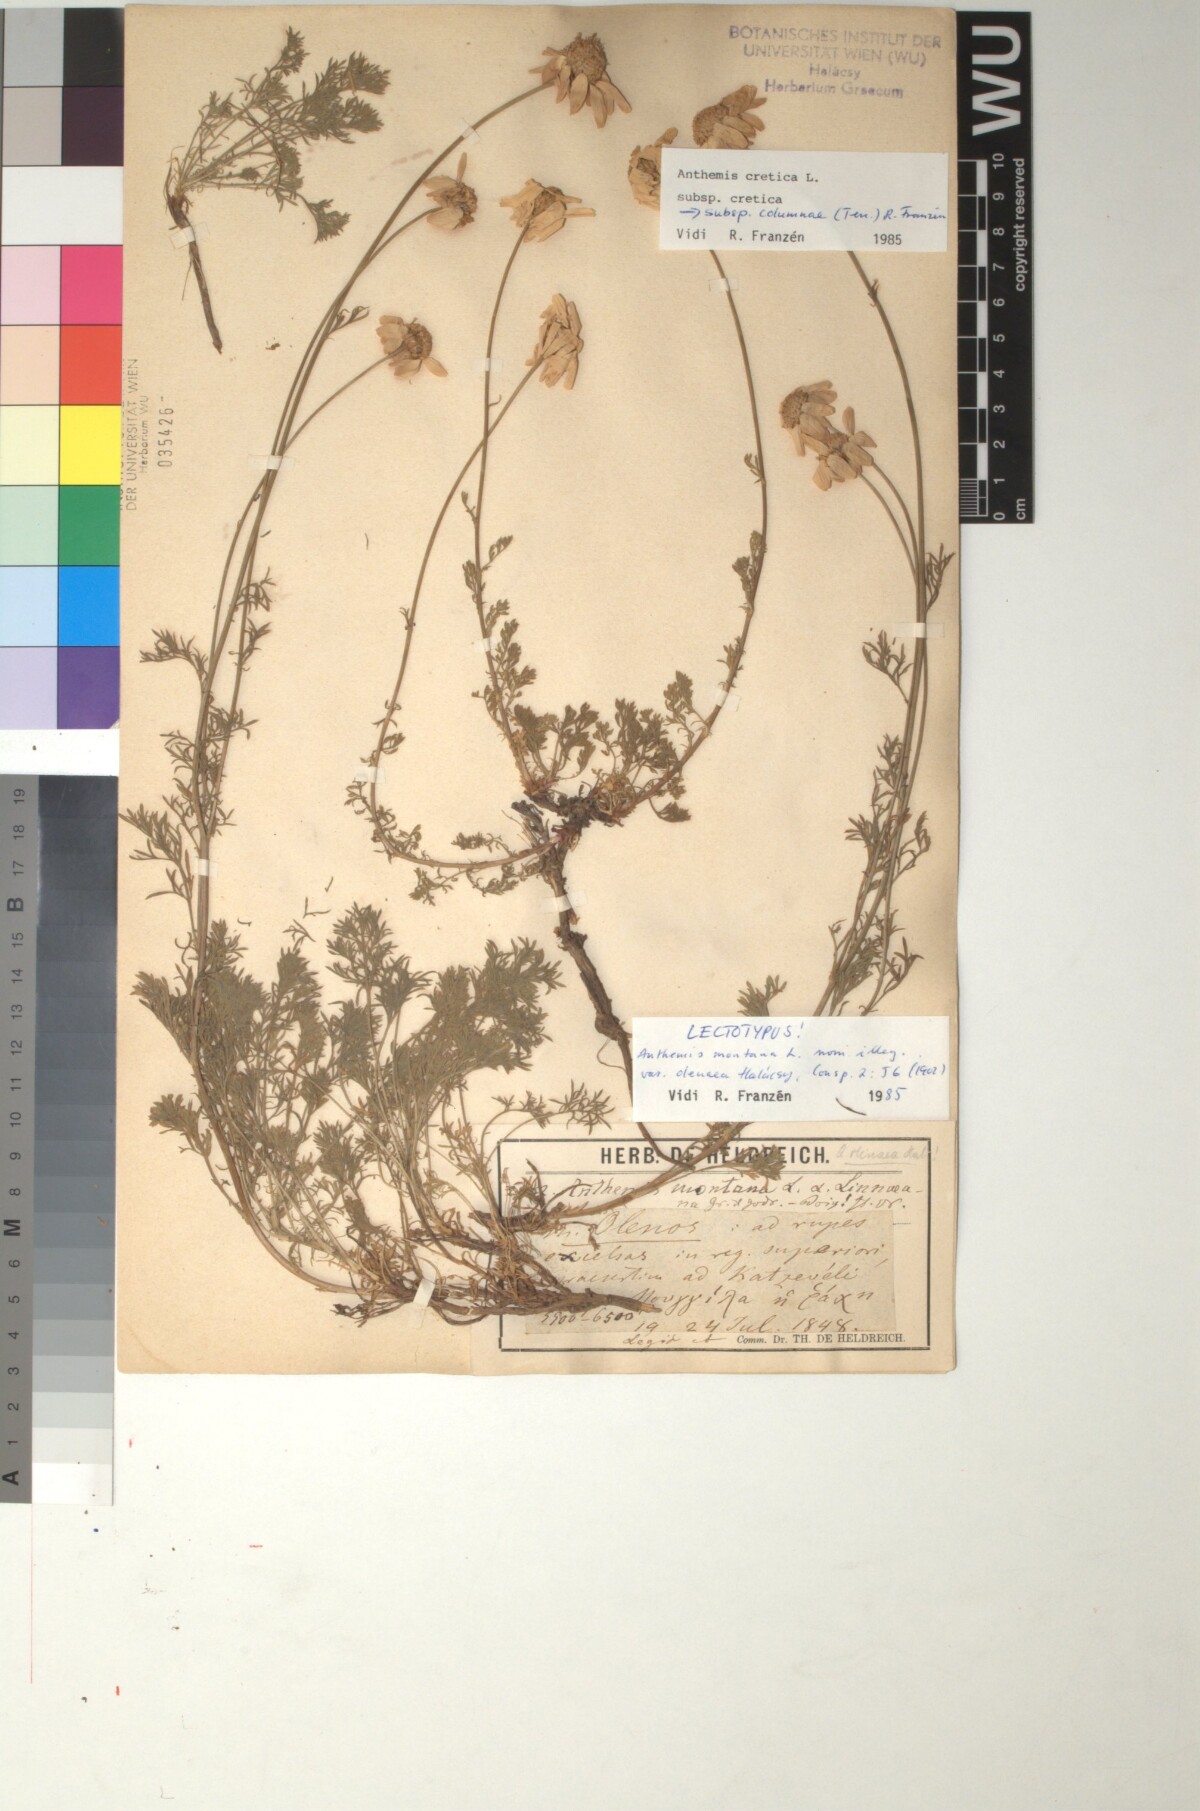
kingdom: Plantae
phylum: Tracheophyta
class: Magnoliopsida
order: Asterales
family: Asteraceae
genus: Anthemis
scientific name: Anthemis cretica
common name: Mountain dog-daisy
